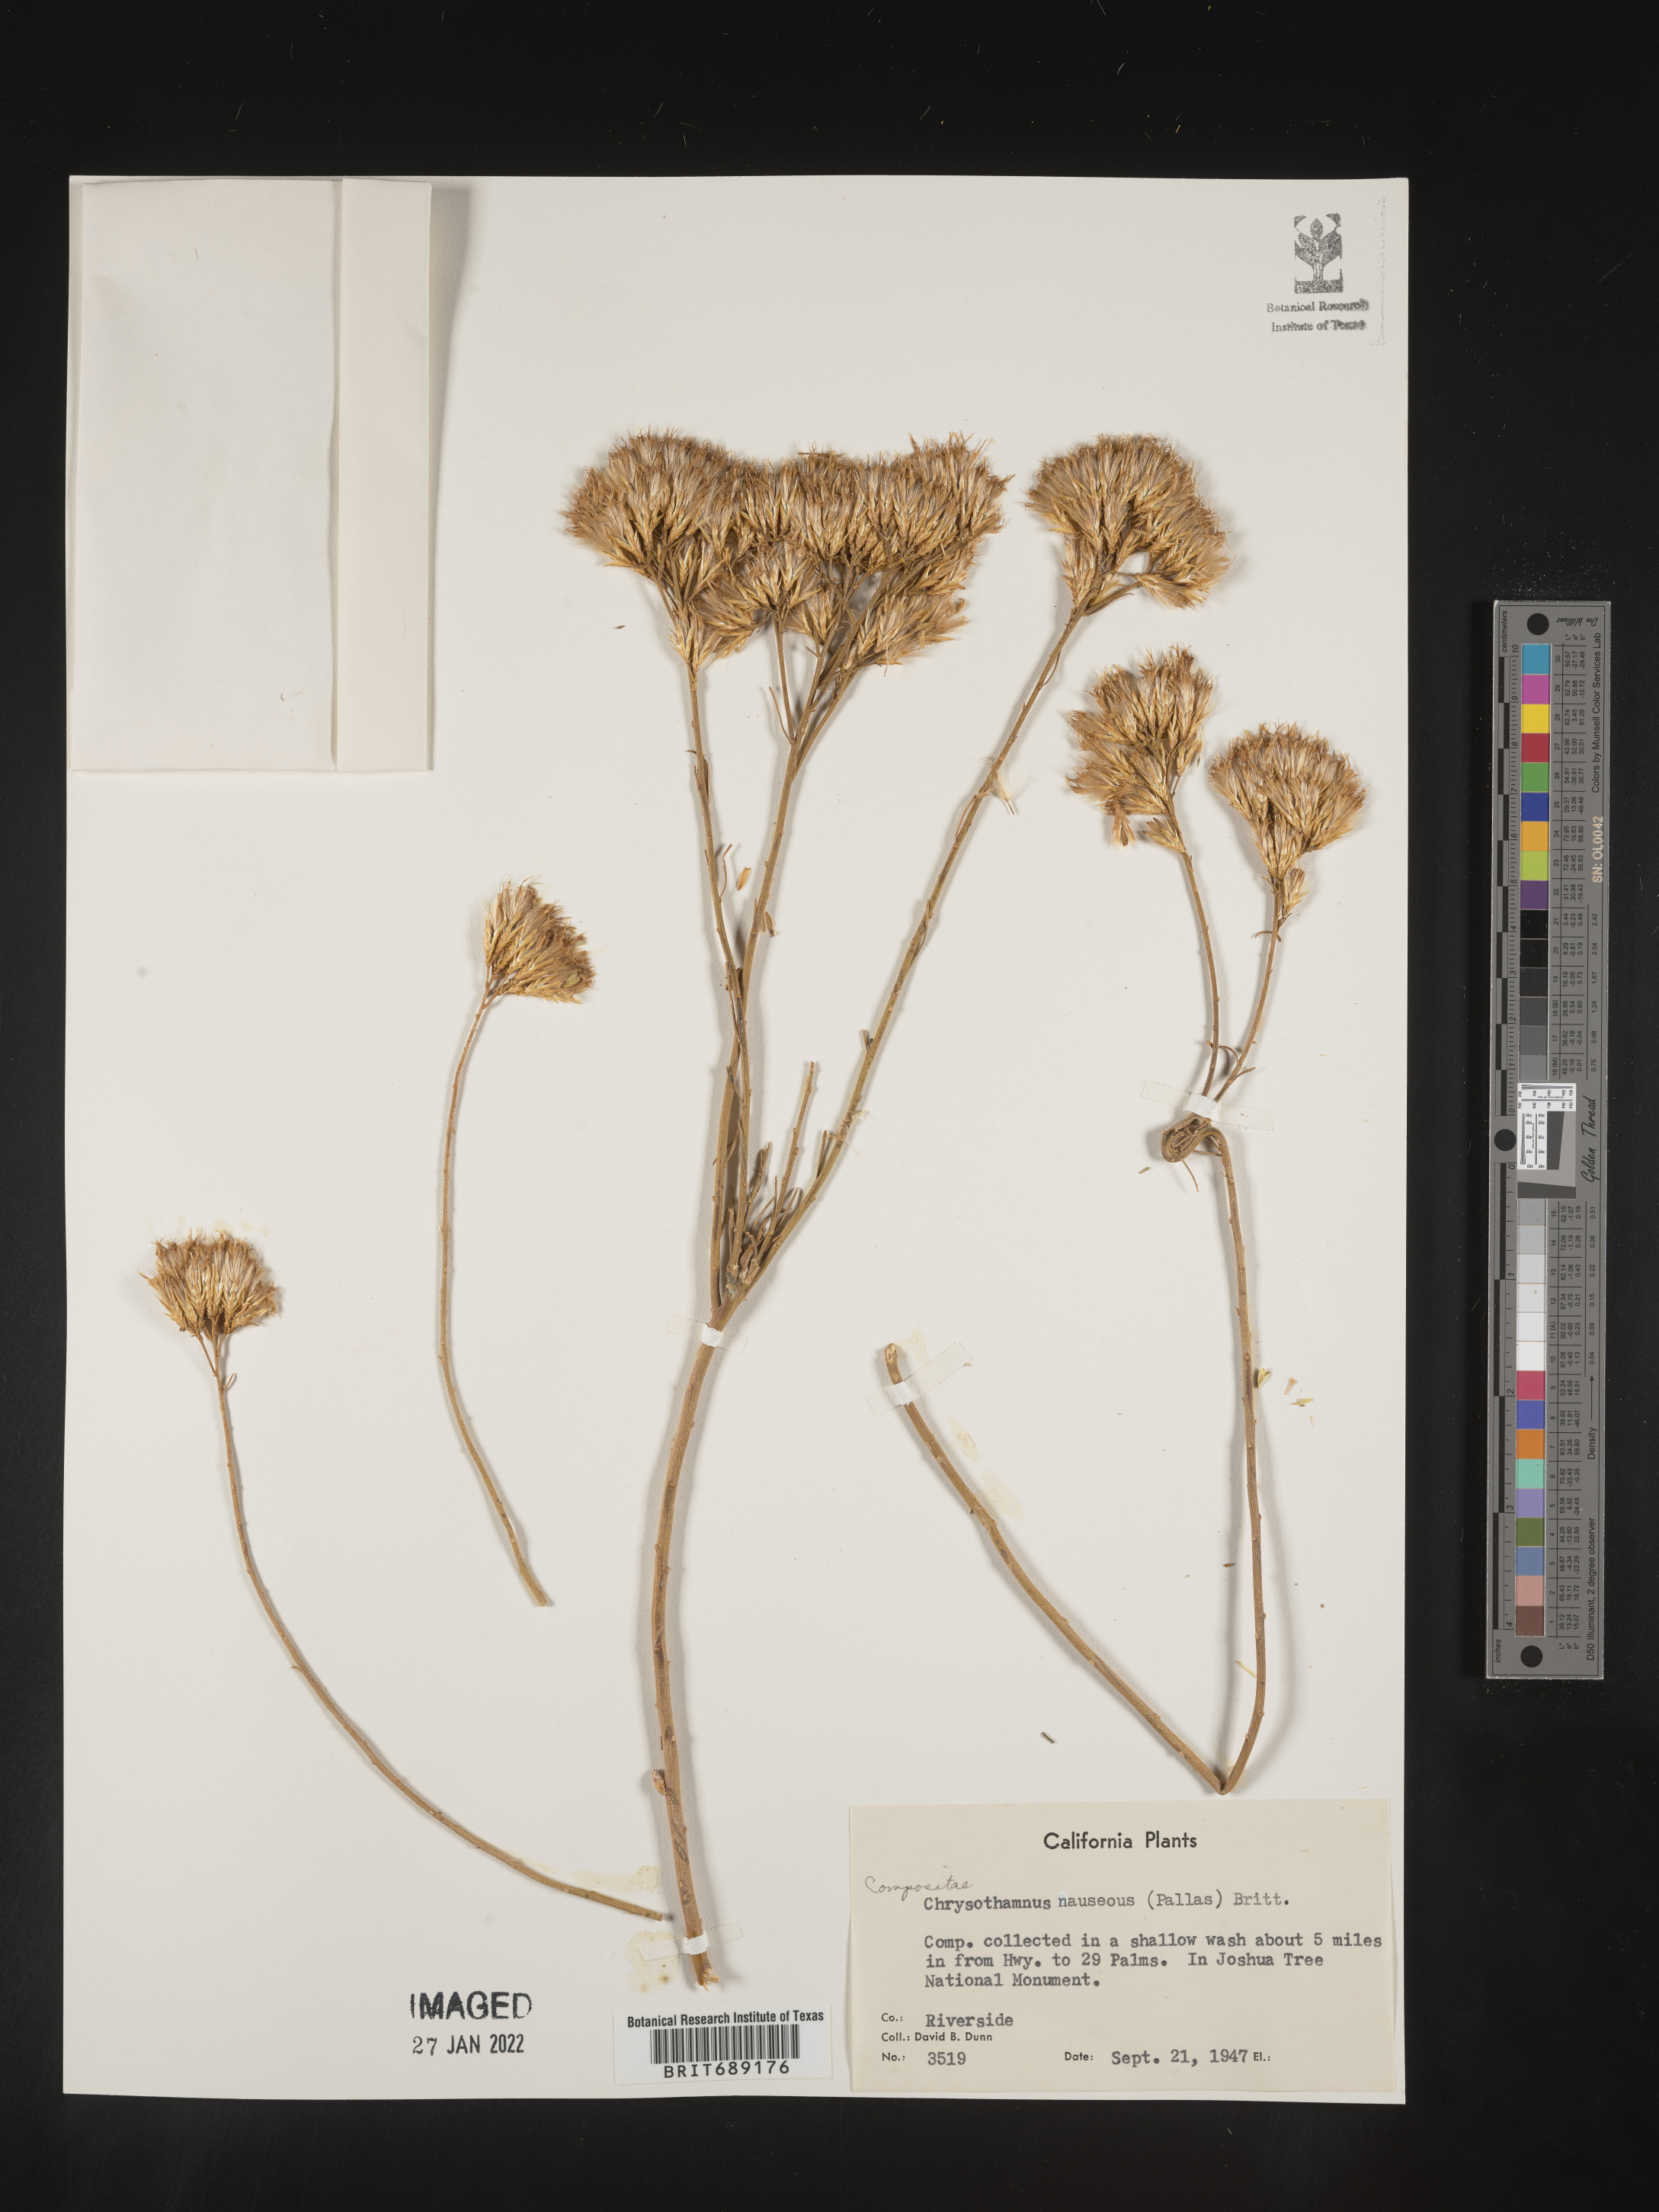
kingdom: Plantae
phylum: Tracheophyta
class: Magnoliopsida
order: Asterales
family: Asteraceae
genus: Chrysothamnus
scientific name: Chrysothamnus
